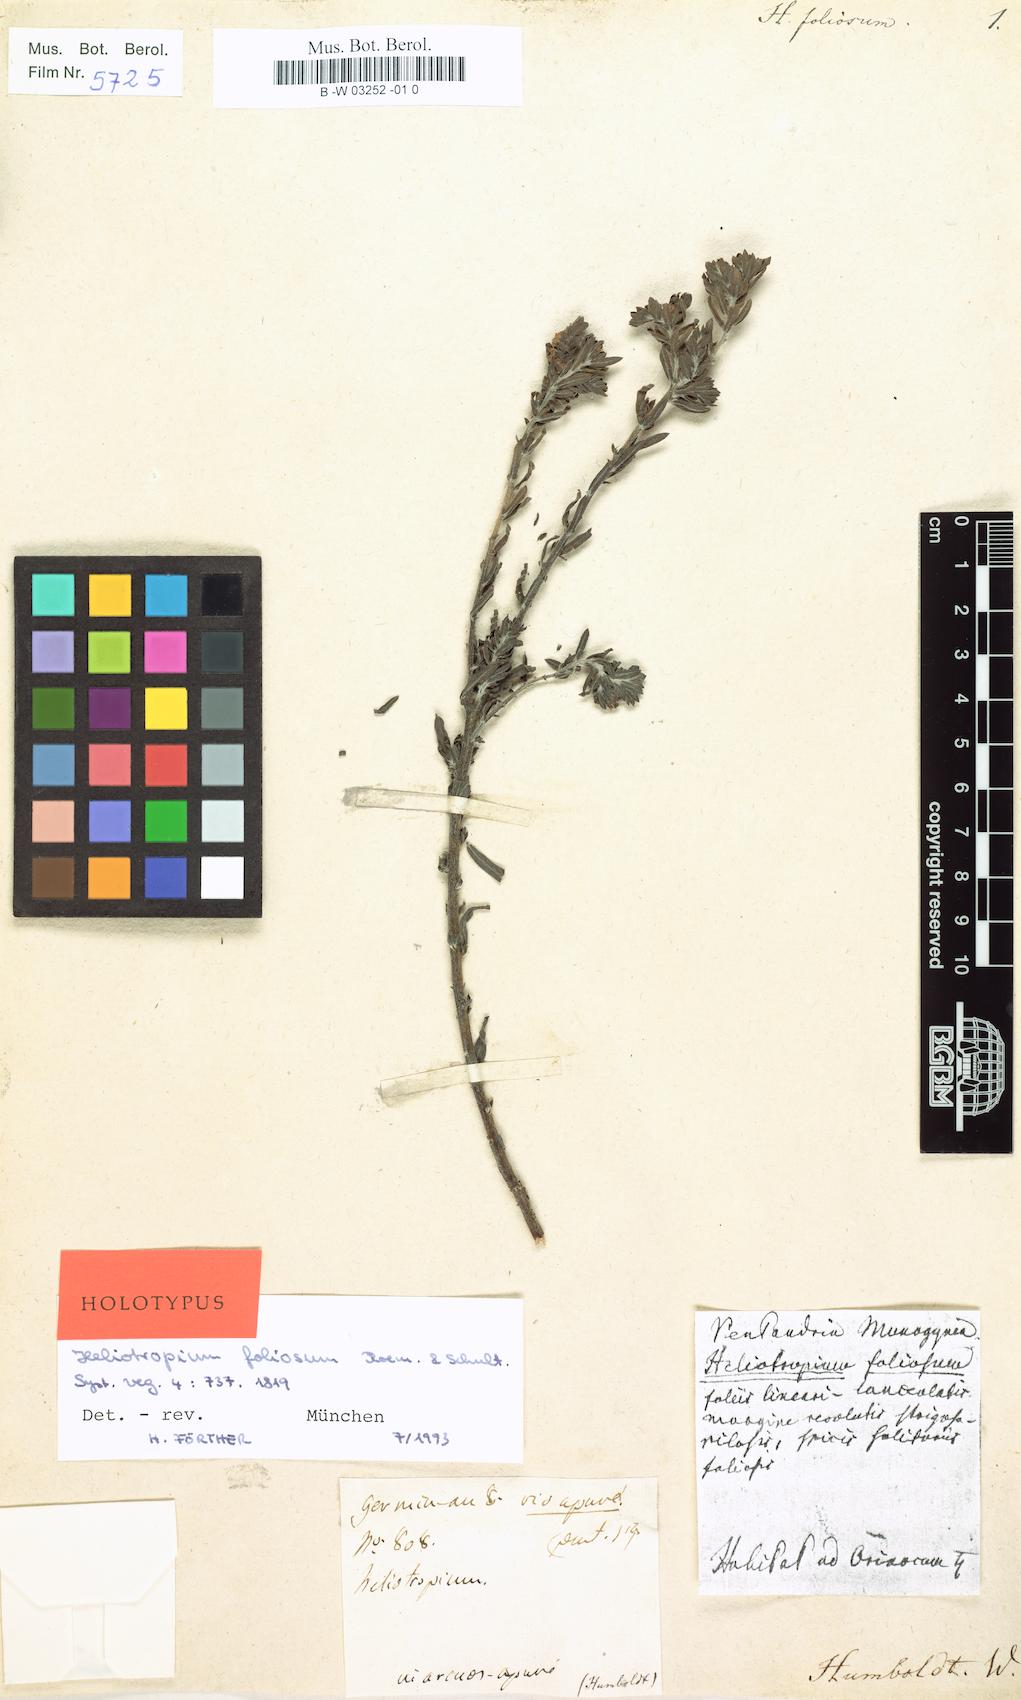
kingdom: Plantae
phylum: Tracheophyta
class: Magnoliopsida
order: Boraginales
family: Heliotropiaceae
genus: Euploca
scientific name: Euploca polyphylla
